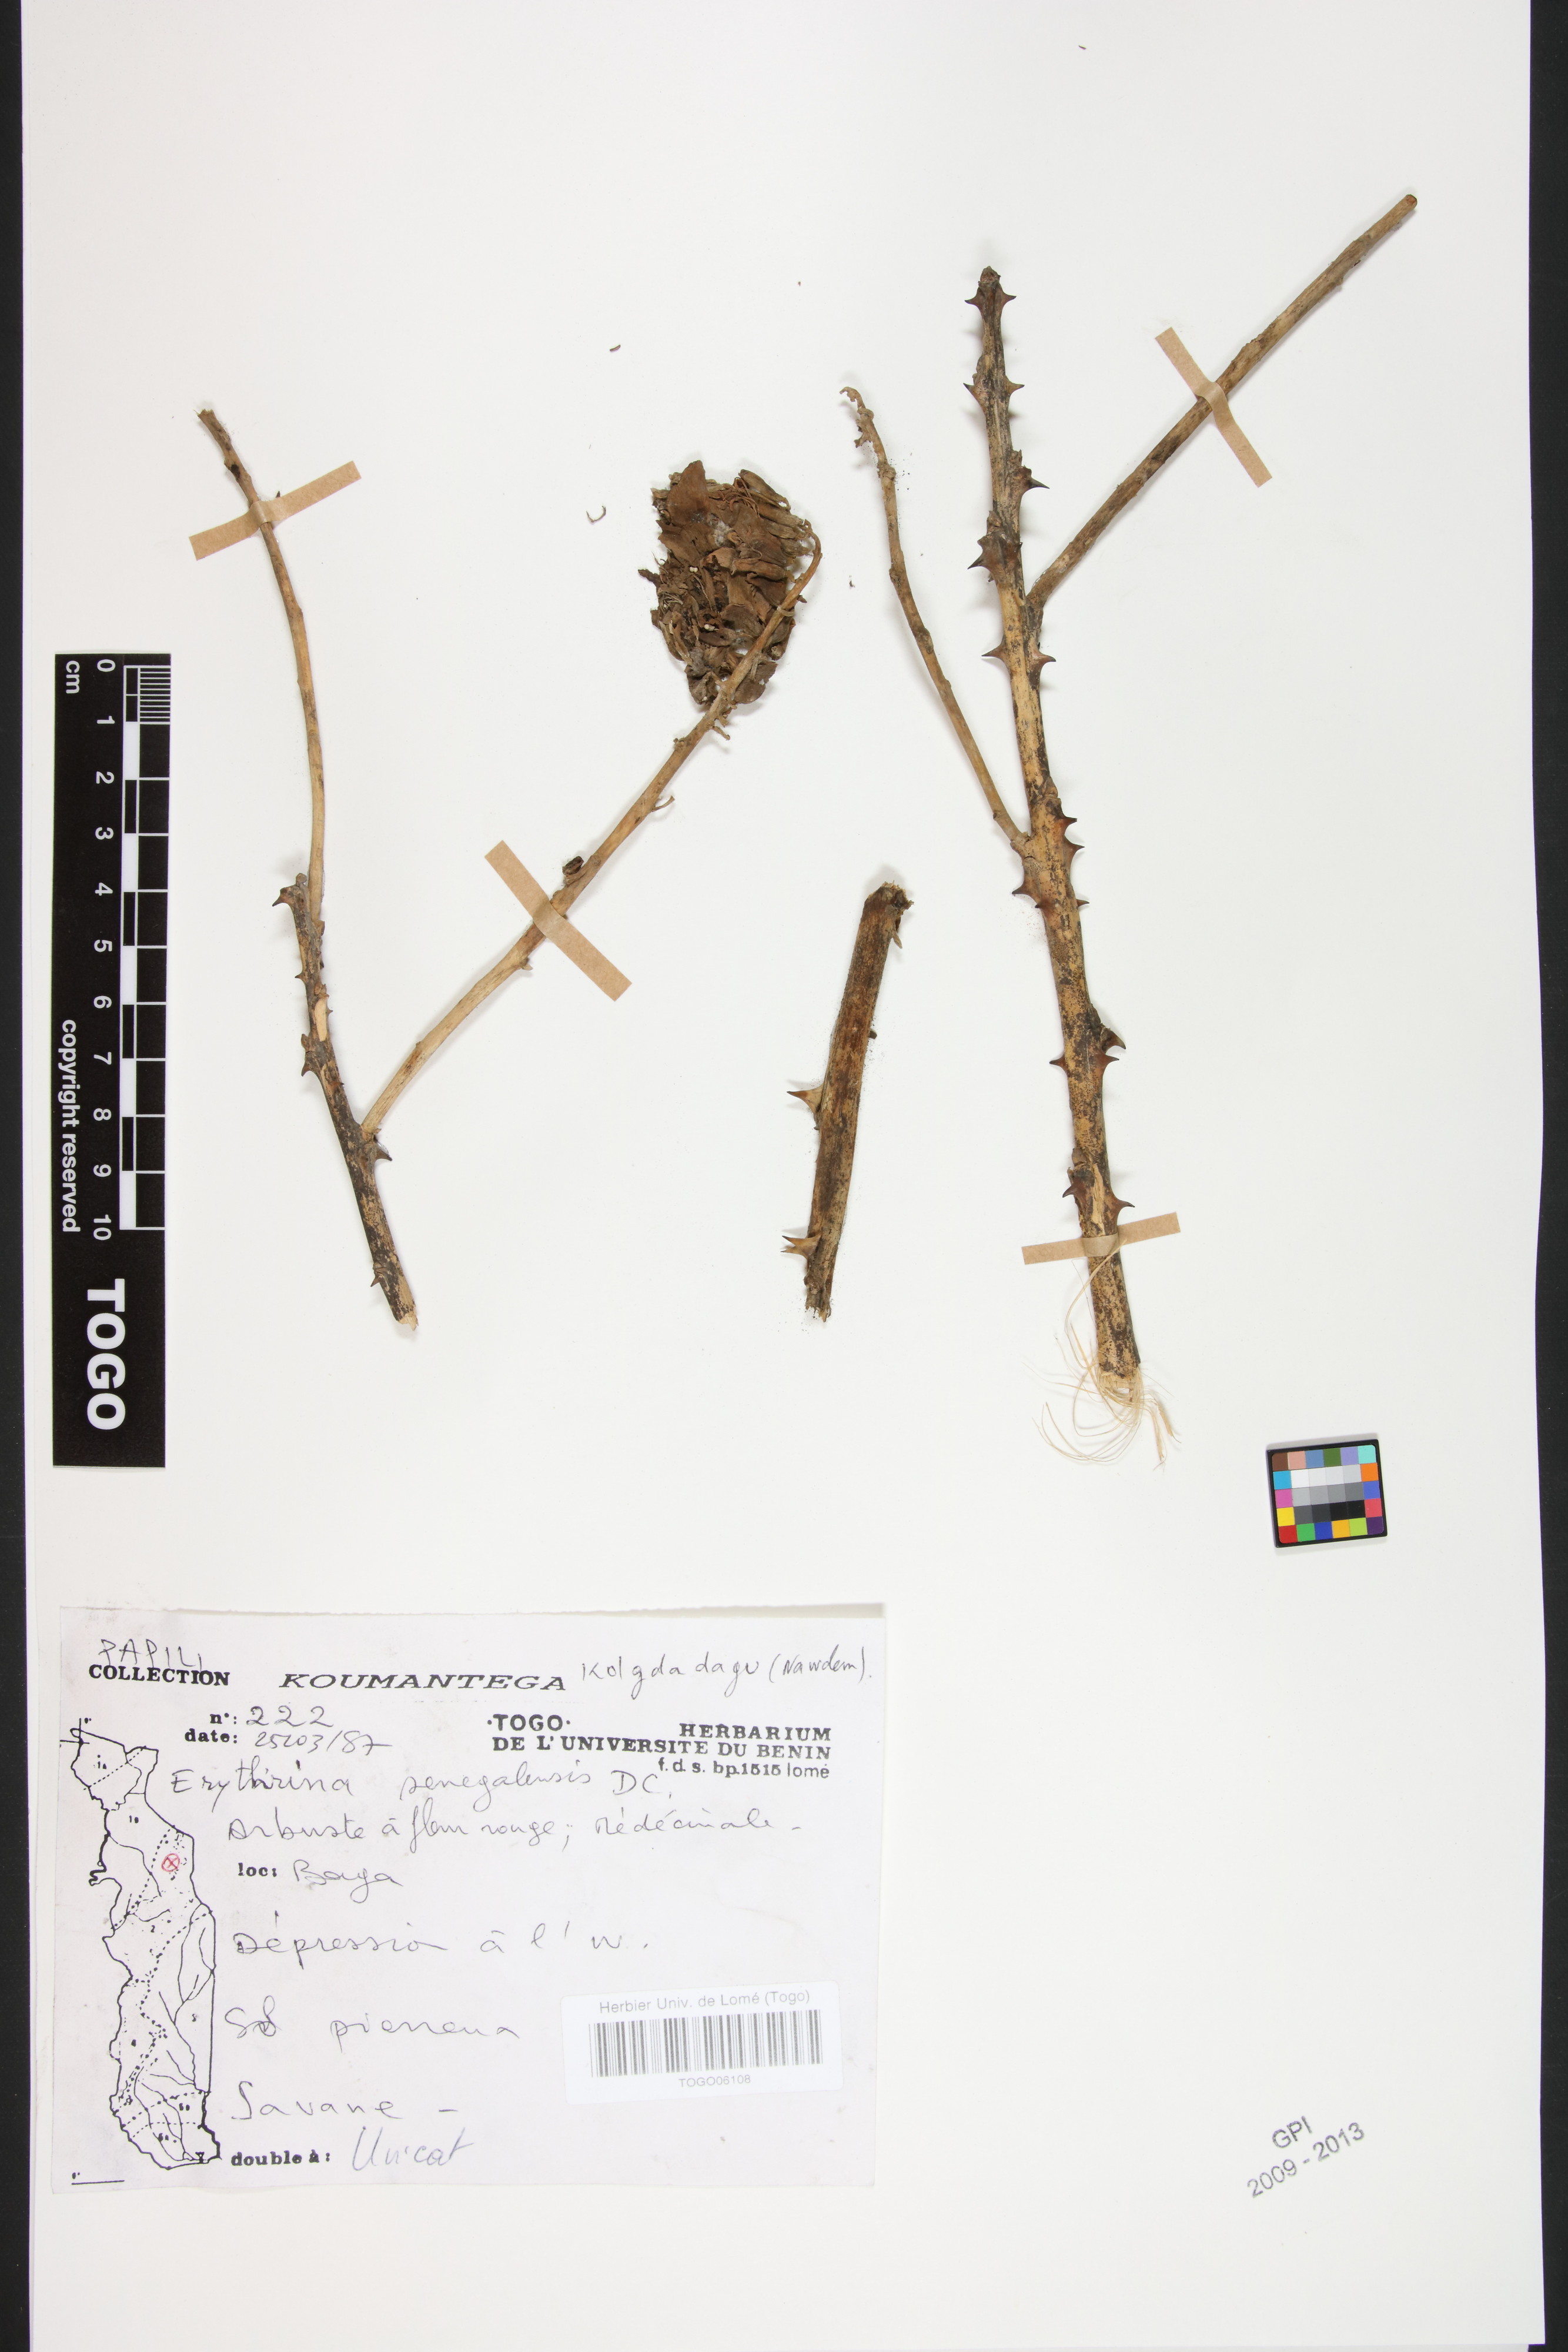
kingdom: Plantae
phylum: Tracheophyta
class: Magnoliopsida
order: Fabales
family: Fabaceae
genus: Erythrina
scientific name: Erythrina senegalensis
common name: Senegal coraltree
